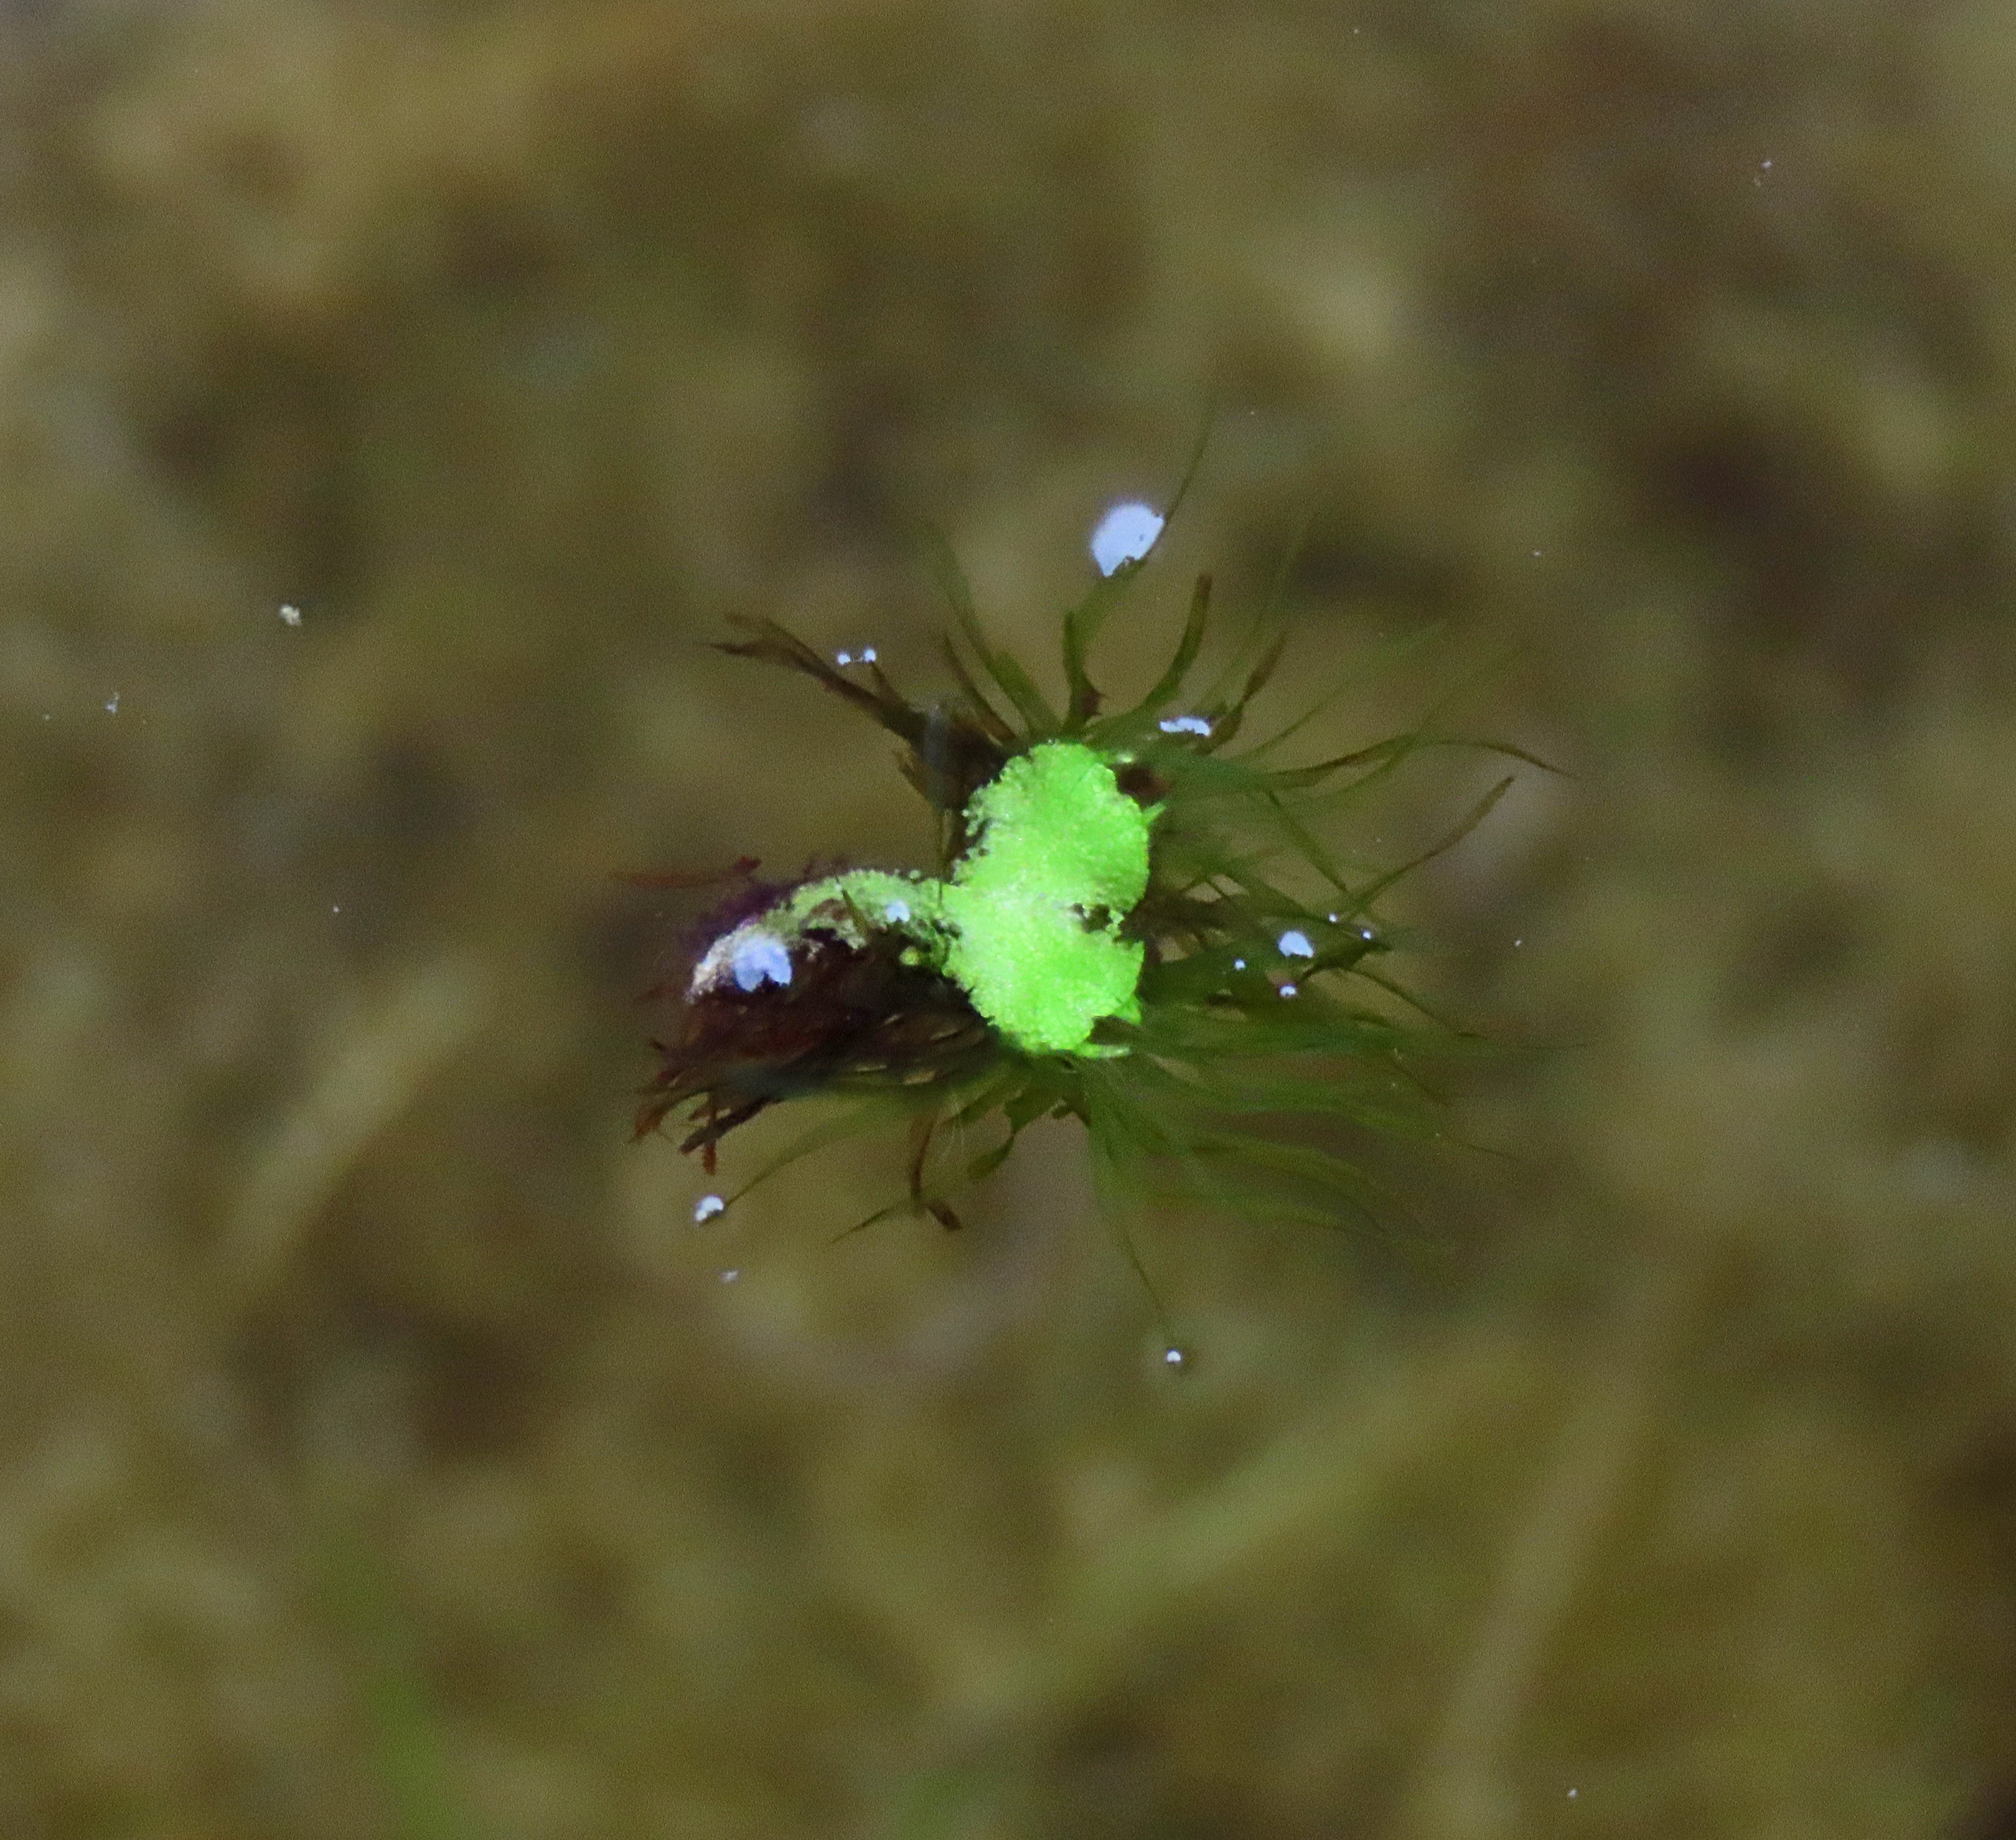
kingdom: Plantae
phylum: Marchantiophyta
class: Marchantiopsida
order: Marchantiales
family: Ricciaceae
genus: Ricciocarpos
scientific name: Ricciocarpos natans
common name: Flydende skælløv
